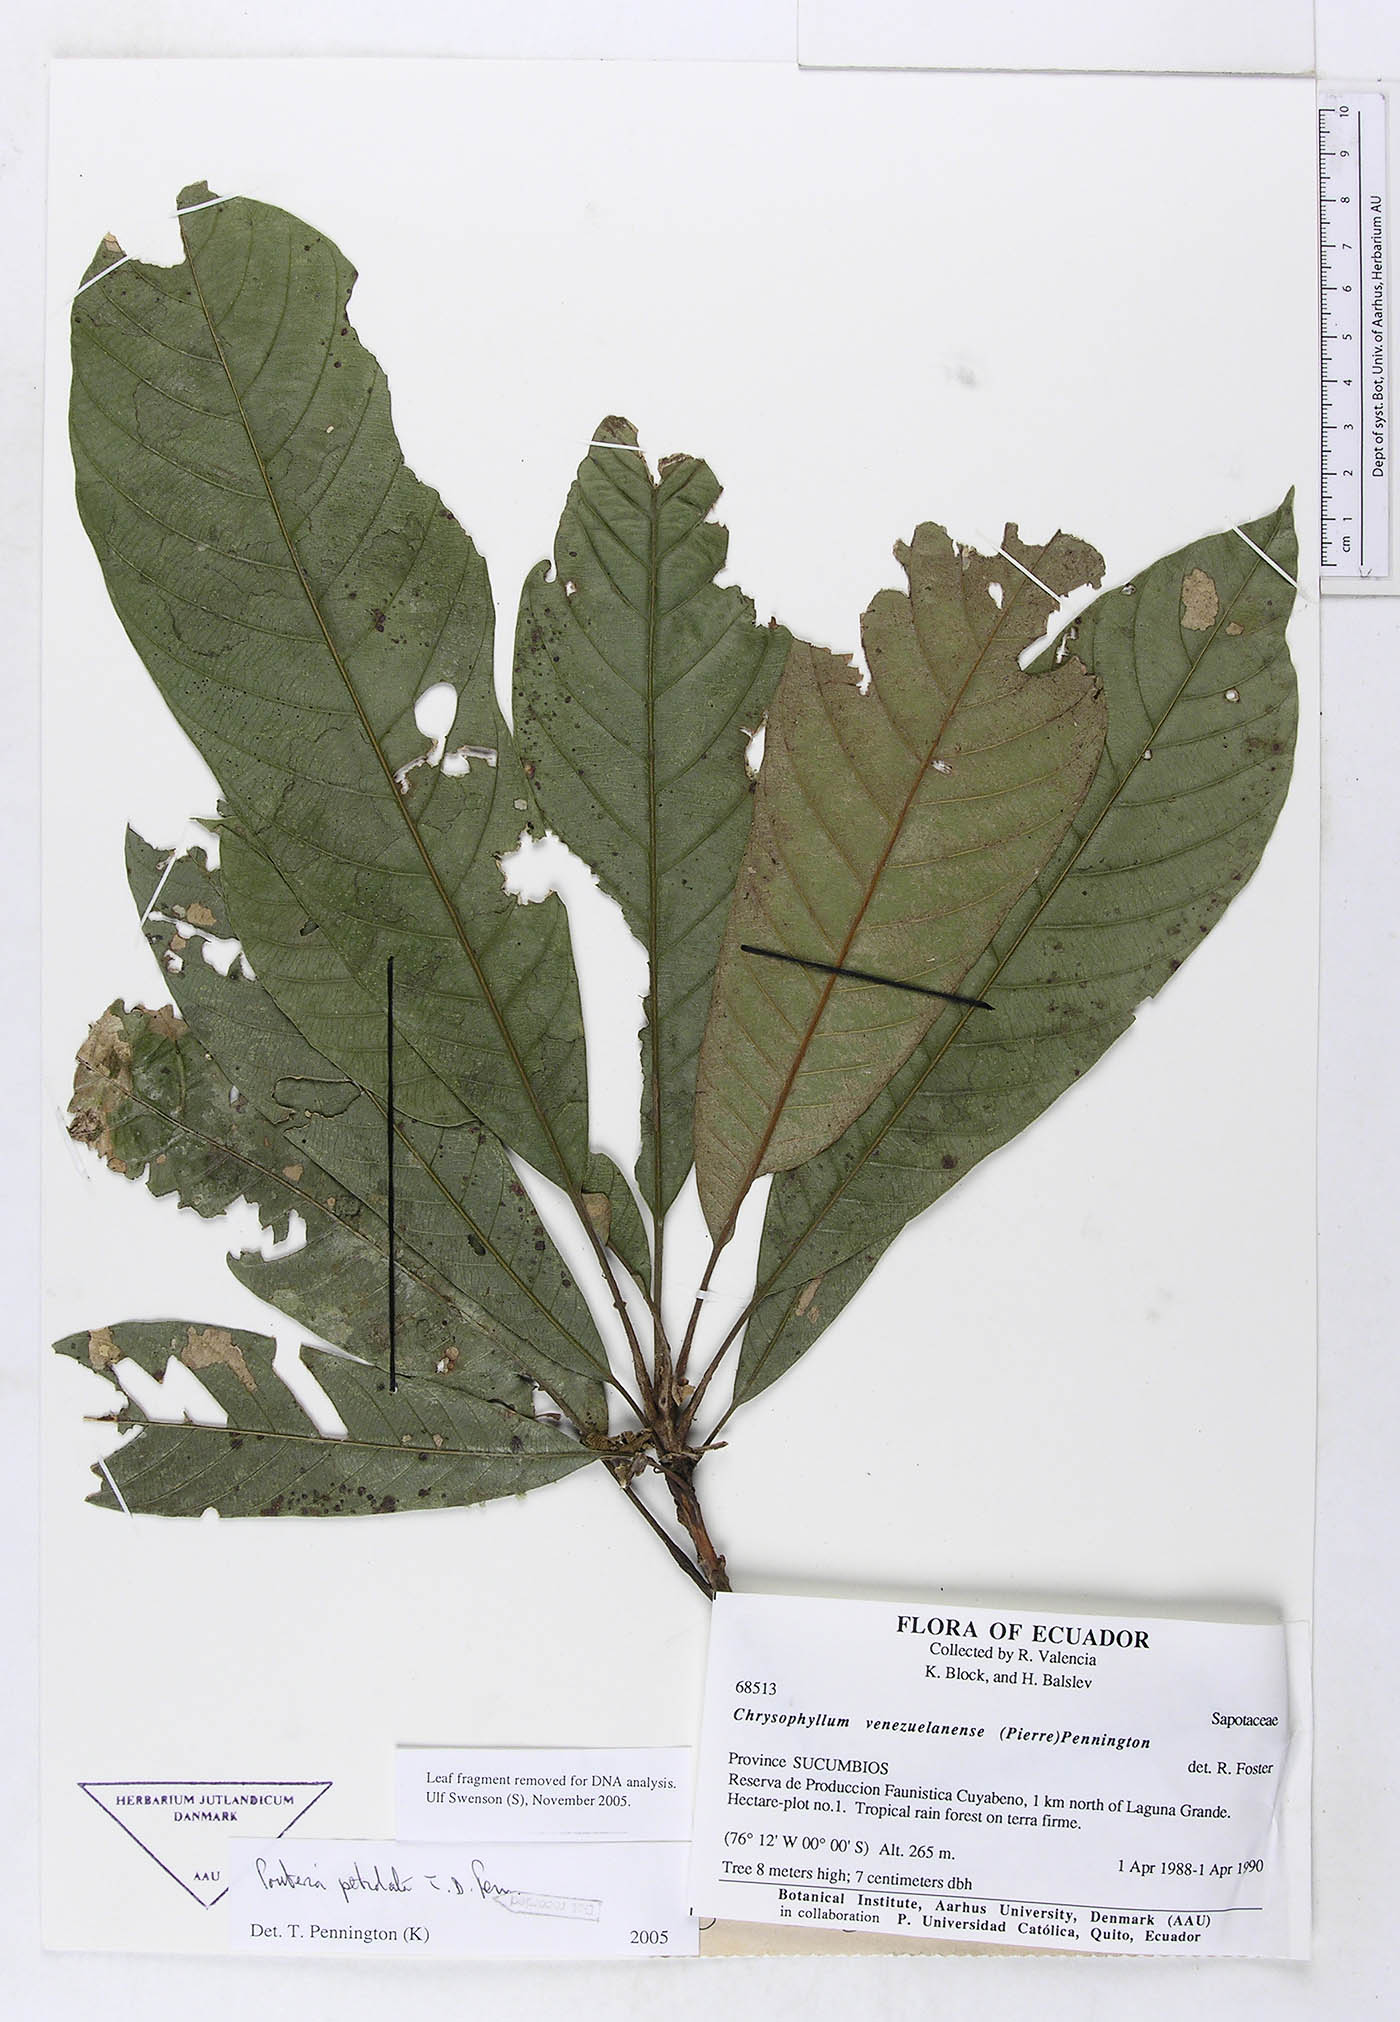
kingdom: Plantae
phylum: Tracheophyta
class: Magnoliopsida
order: Ericales
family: Sapotaceae
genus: Pouteria
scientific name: Pouteria petiolata
